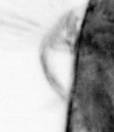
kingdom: Animalia
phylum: Arthropoda
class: Copepoda
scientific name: Copepoda
